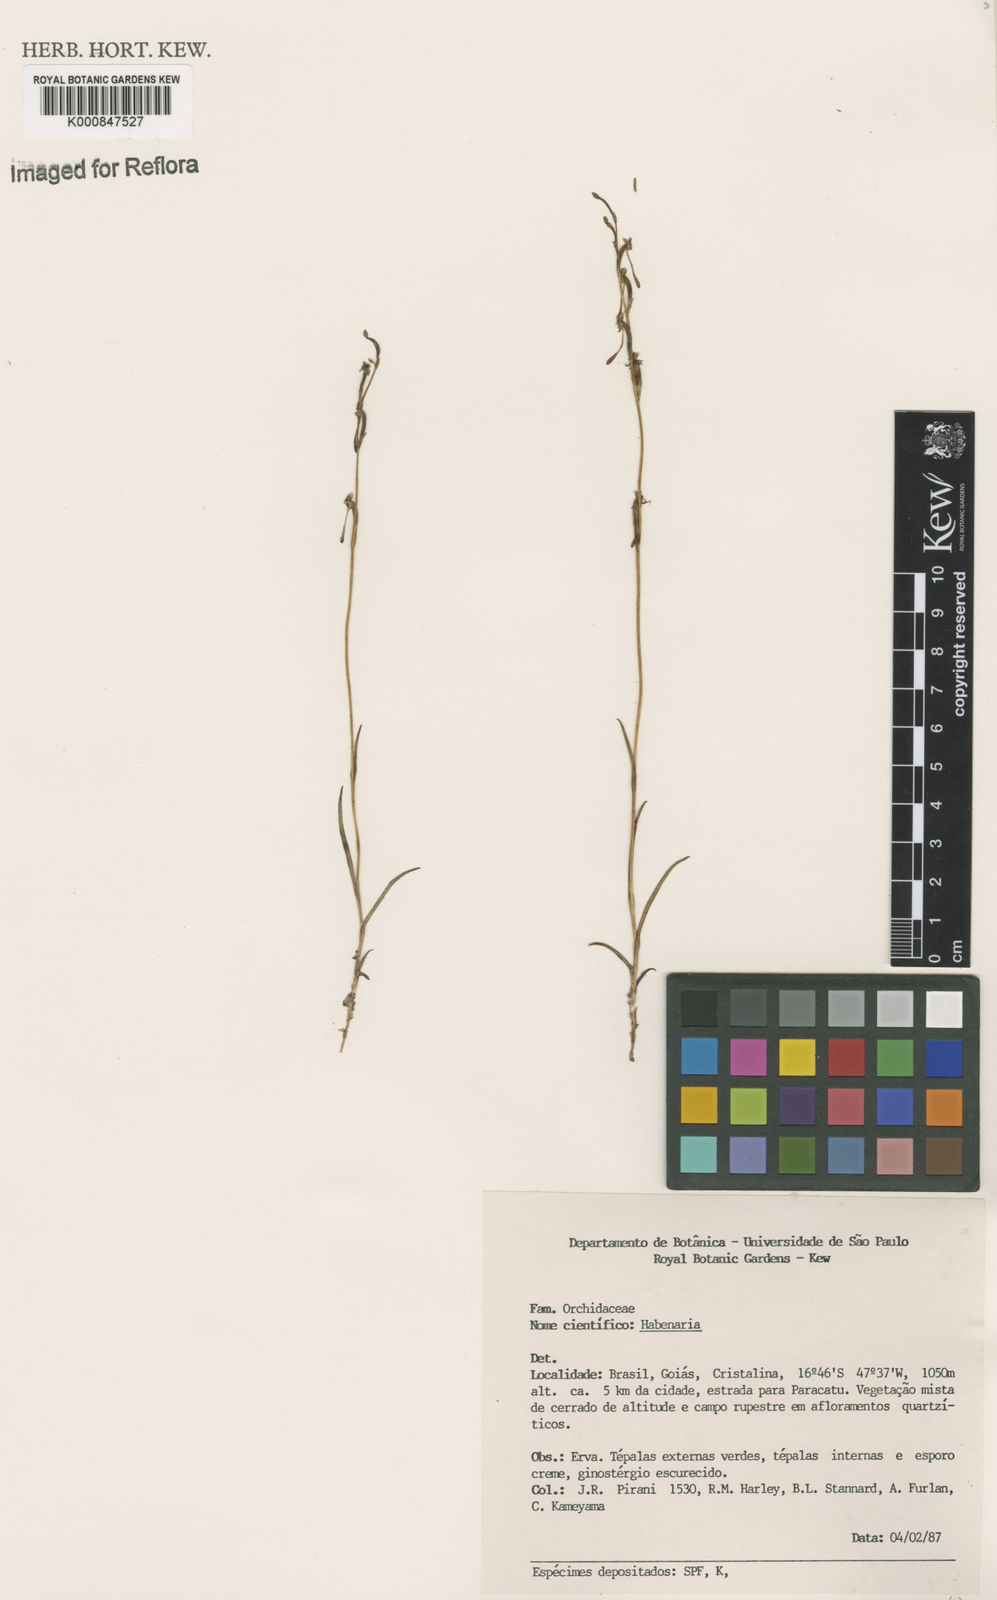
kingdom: Plantae
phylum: Tracheophyta
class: Liliopsida
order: Asparagales
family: Orchidaceae
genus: Habenaria
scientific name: Habenaria
